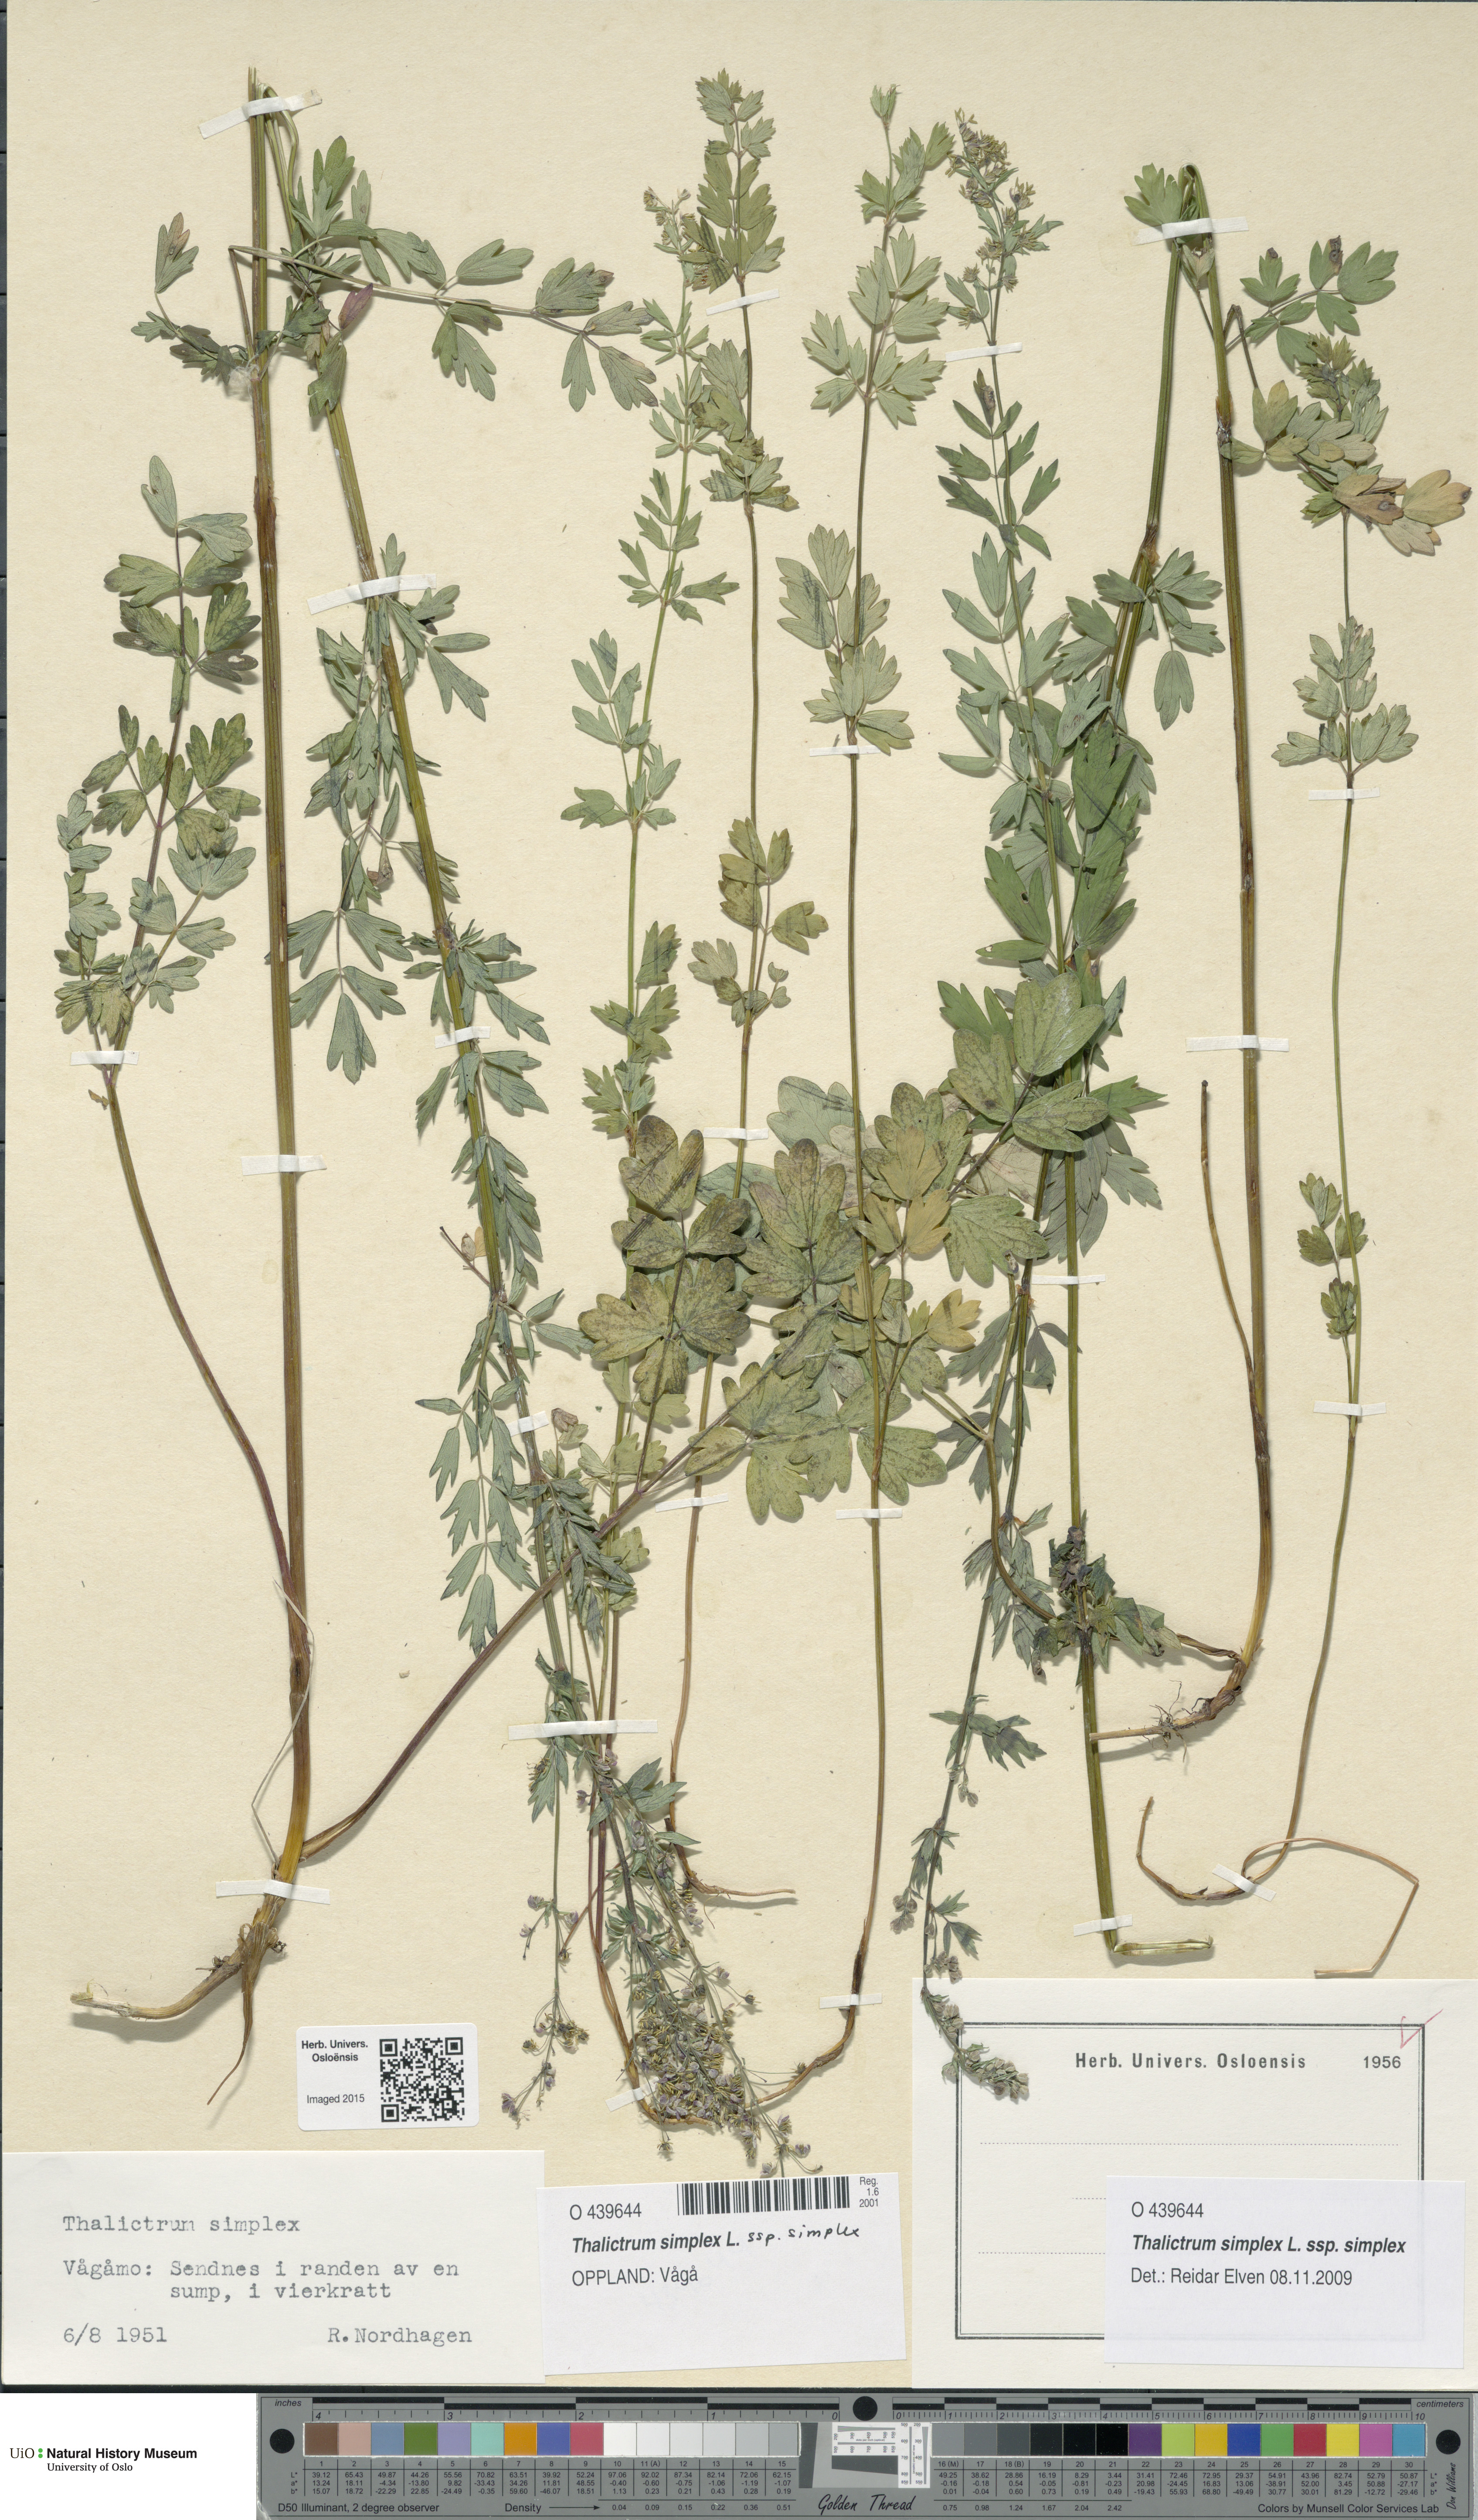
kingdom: Plantae
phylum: Tracheophyta
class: Magnoliopsida
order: Ranunculales
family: Ranunculaceae
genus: Thalictrum
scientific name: Thalictrum simplex
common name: Small meadow-rue
